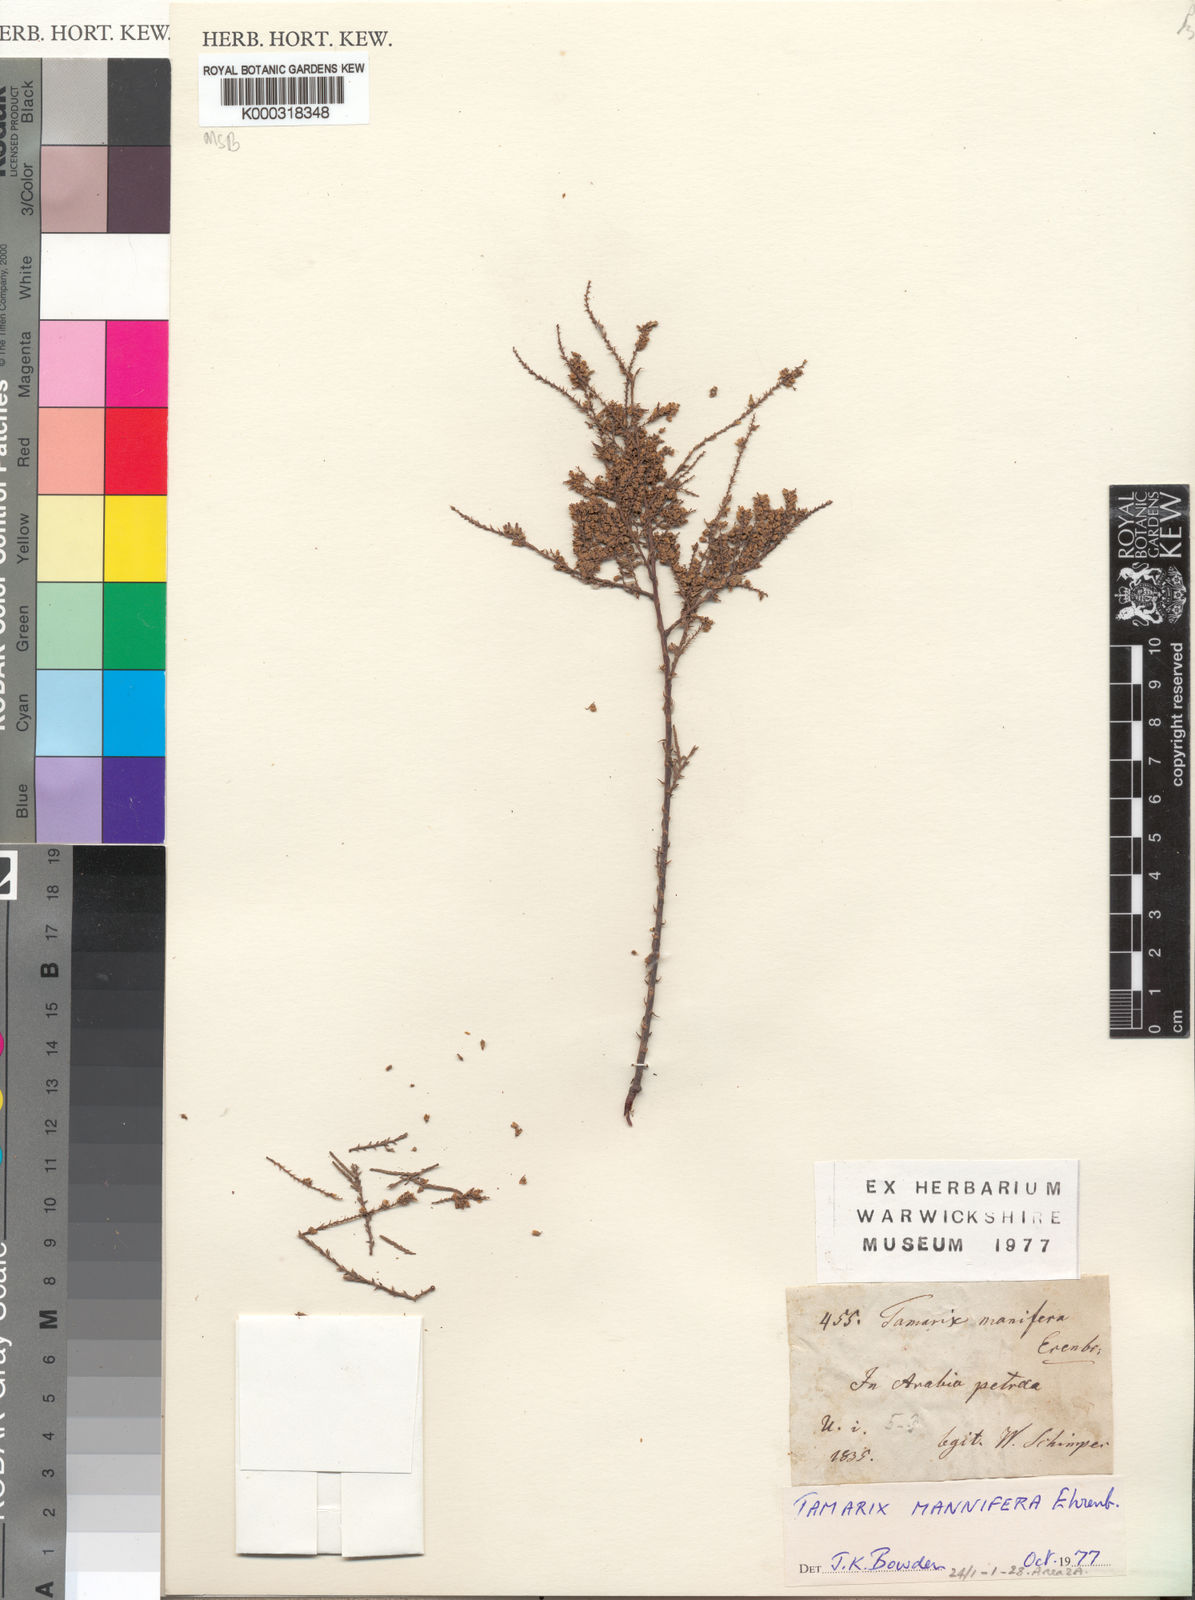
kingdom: Plantae
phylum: Tracheophyta
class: Magnoliopsida
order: Caryophyllales
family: Tamaricaceae
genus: Tamarix
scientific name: Tamarix senegalensis
